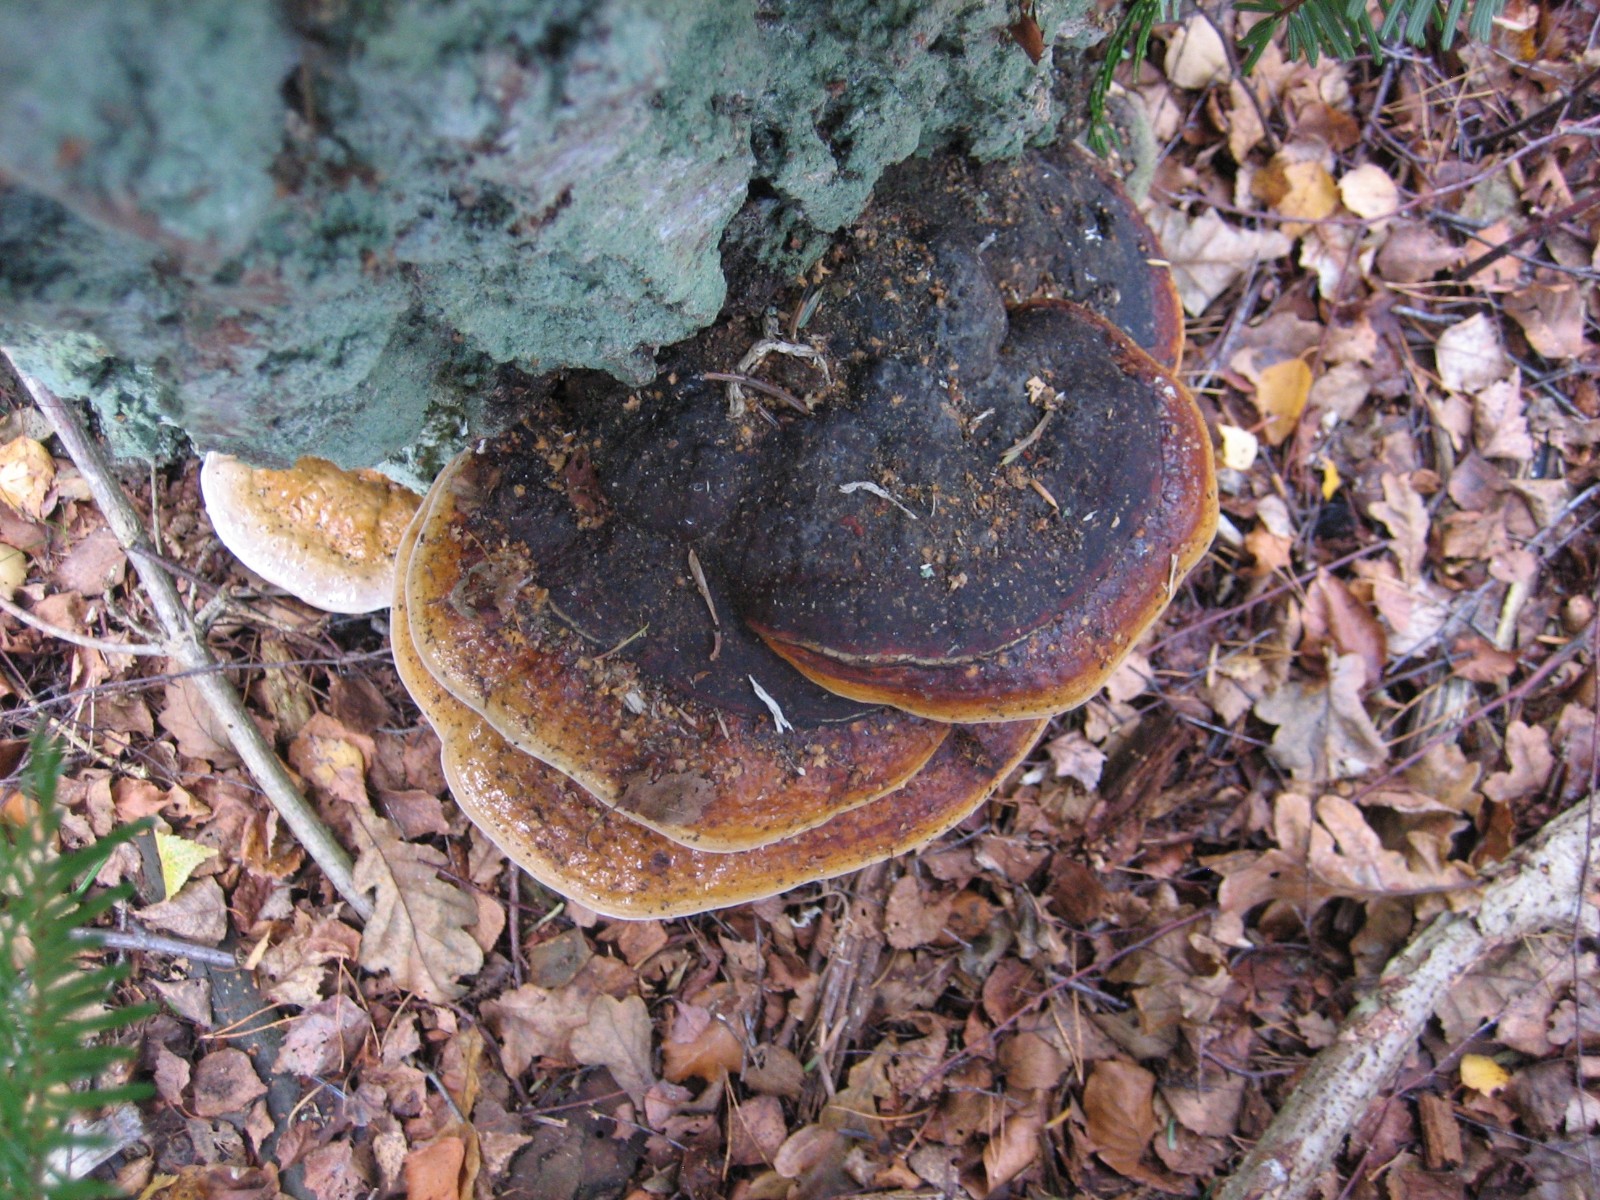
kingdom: Fungi
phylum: Basidiomycota
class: Agaricomycetes
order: Polyporales
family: Fomitopsidaceae
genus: Fomitopsis
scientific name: Fomitopsis pinicola
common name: randbæltet hovporesvamp
